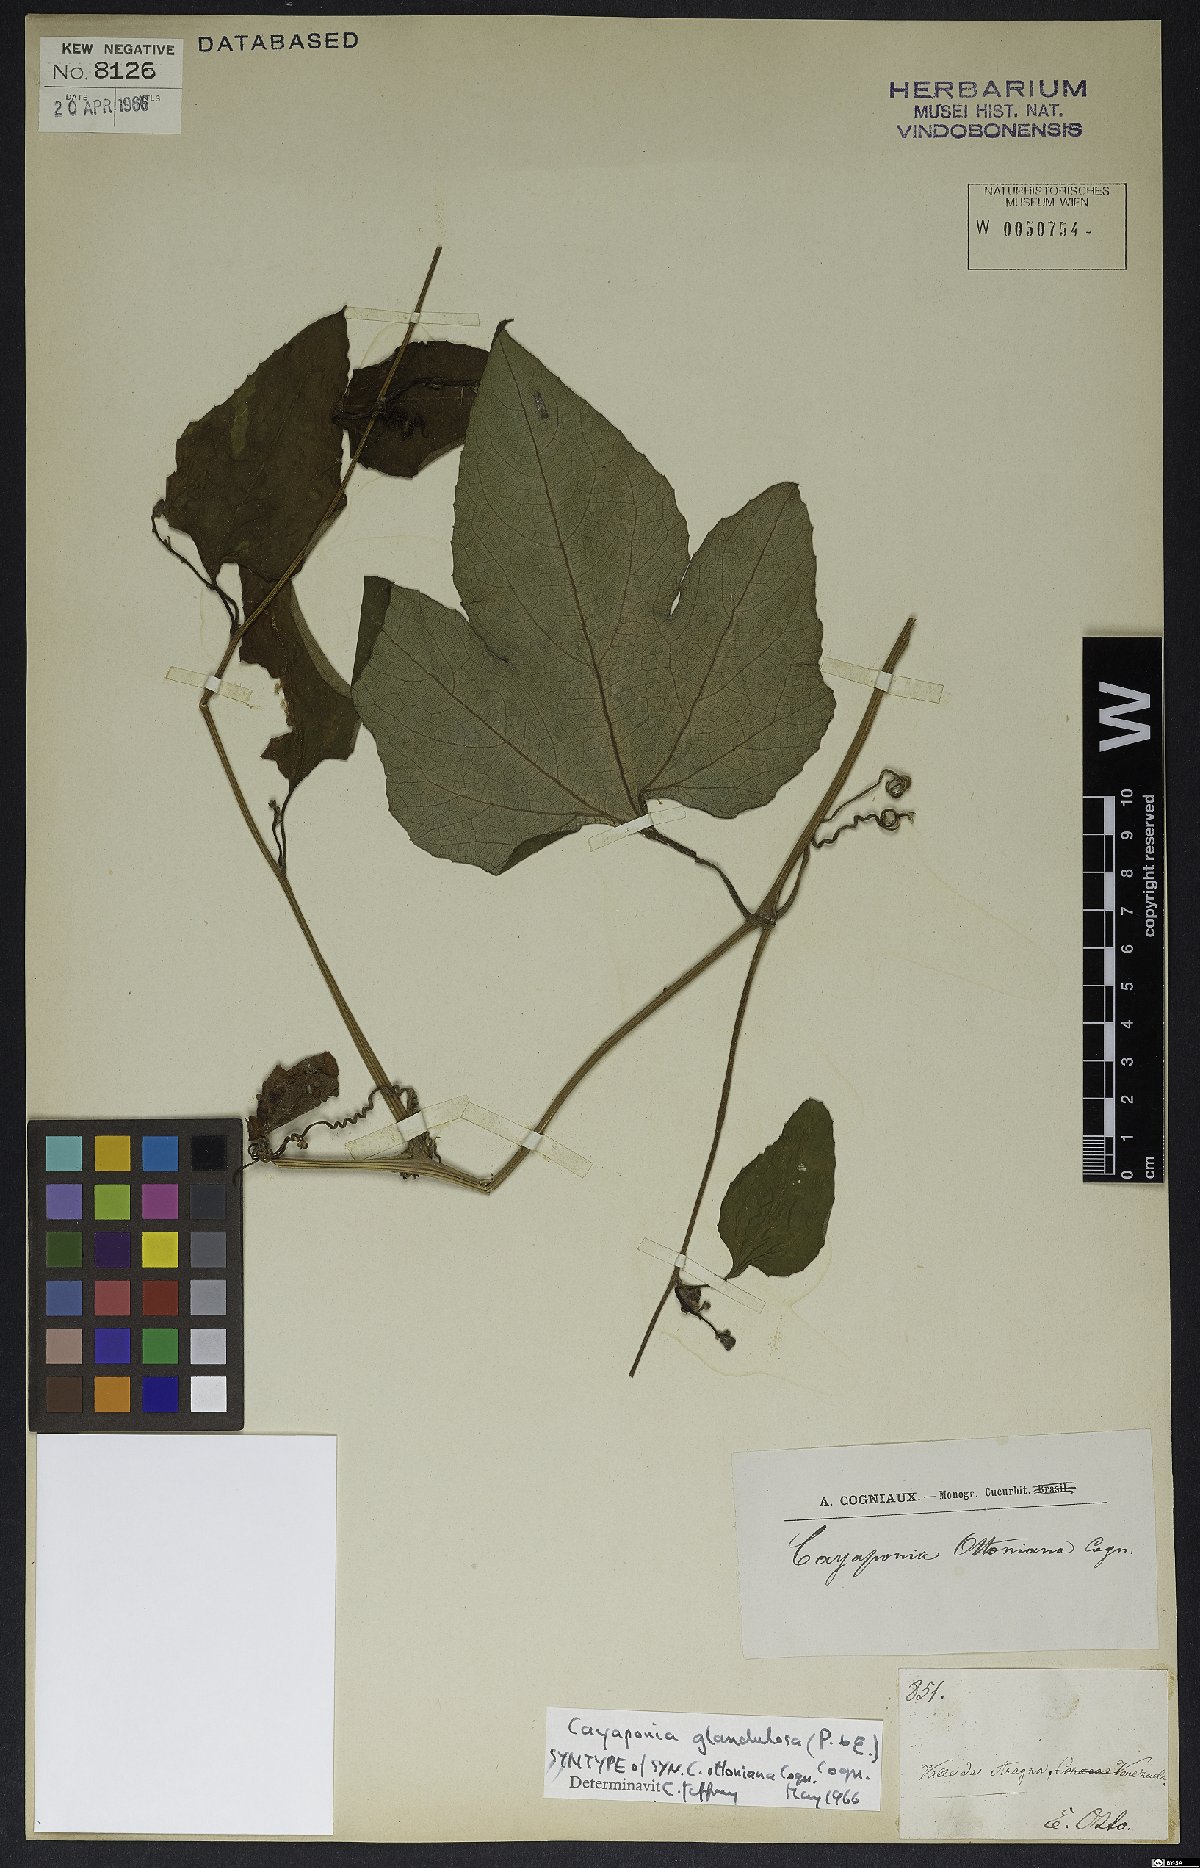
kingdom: Plantae
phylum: Tracheophyta
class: Magnoliopsida
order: Cucurbitales
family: Cucurbitaceae
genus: Cayaponia
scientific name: Cayaponia glandulosa
